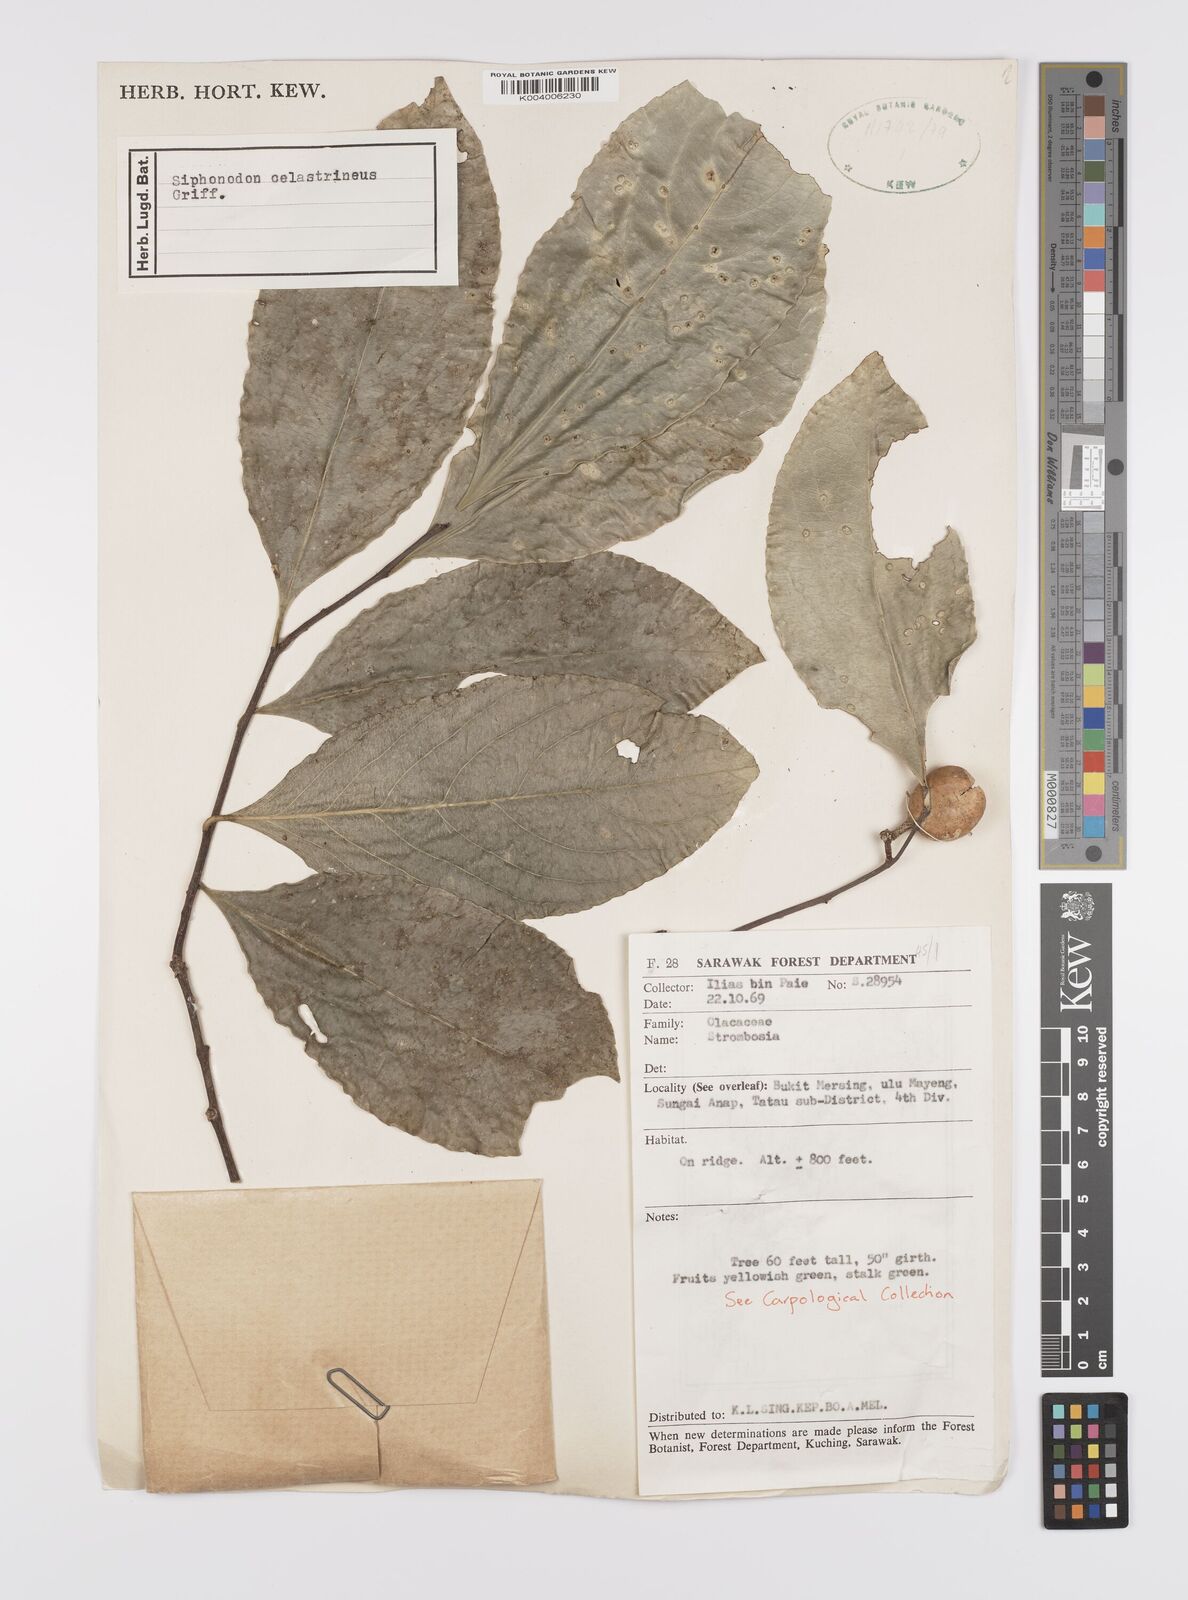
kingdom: Plantae
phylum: Tracheophyta
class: Magnoliopsida
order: Celastrales
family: Celastraceae
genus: Siphonodon
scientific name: Siphonodon celastrineus
